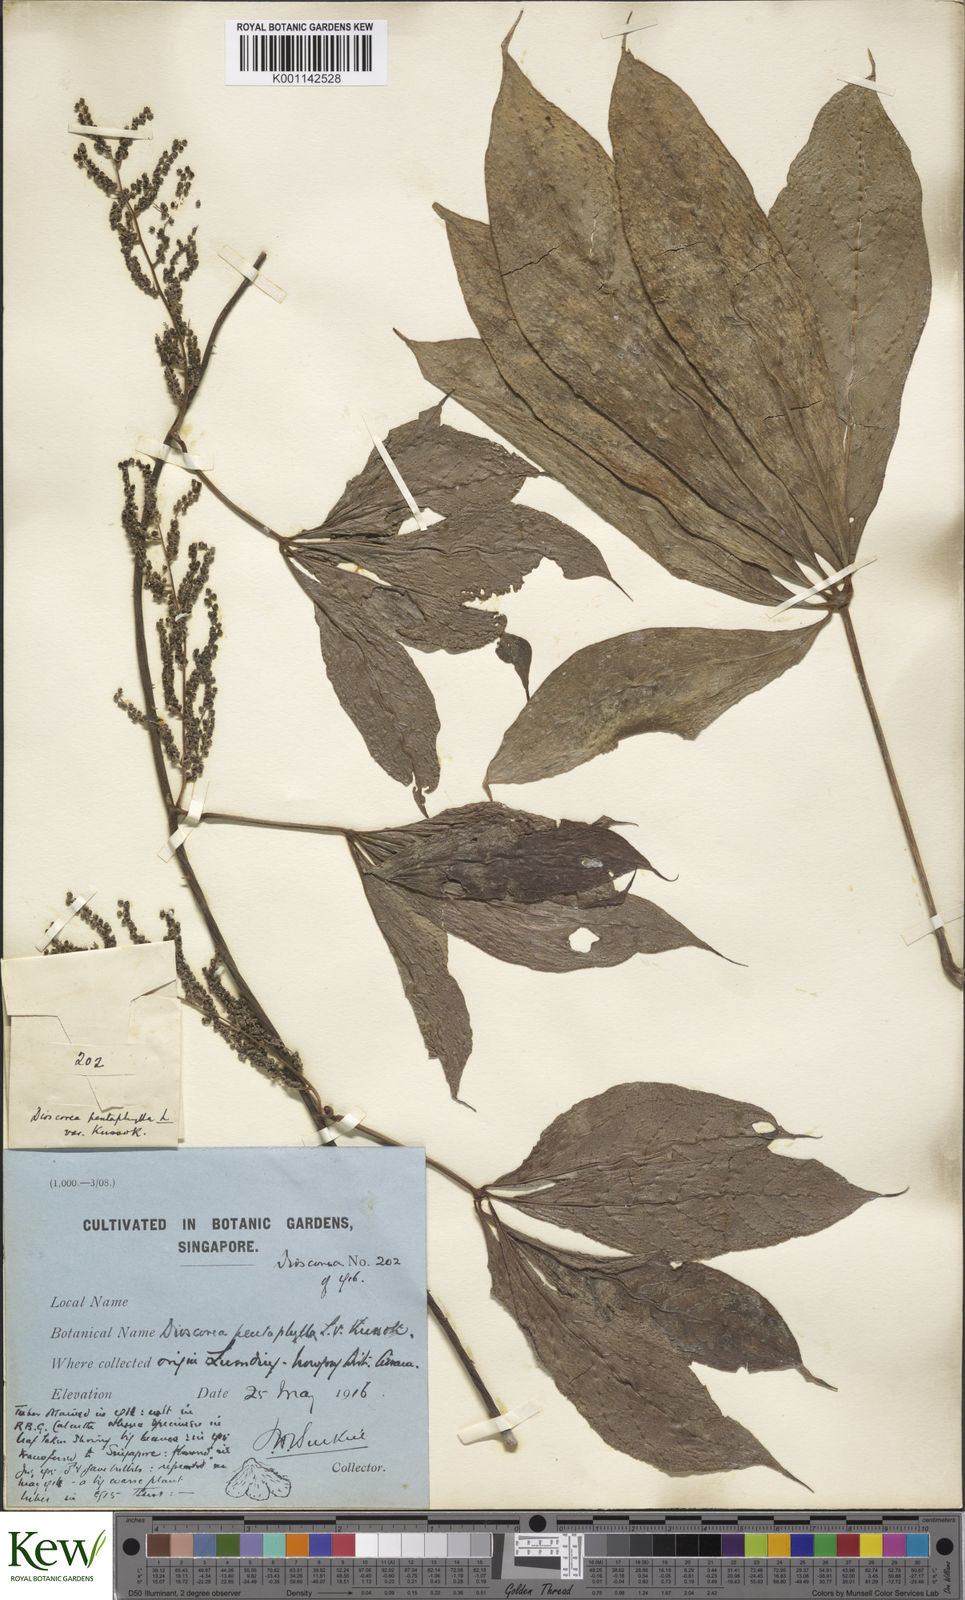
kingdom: Plantae
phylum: Tracheophyta
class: Liliopsida
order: Dioscoreales
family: Dioscoreaceae
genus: Dioscorea
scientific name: Dioscorea pentaphylla
